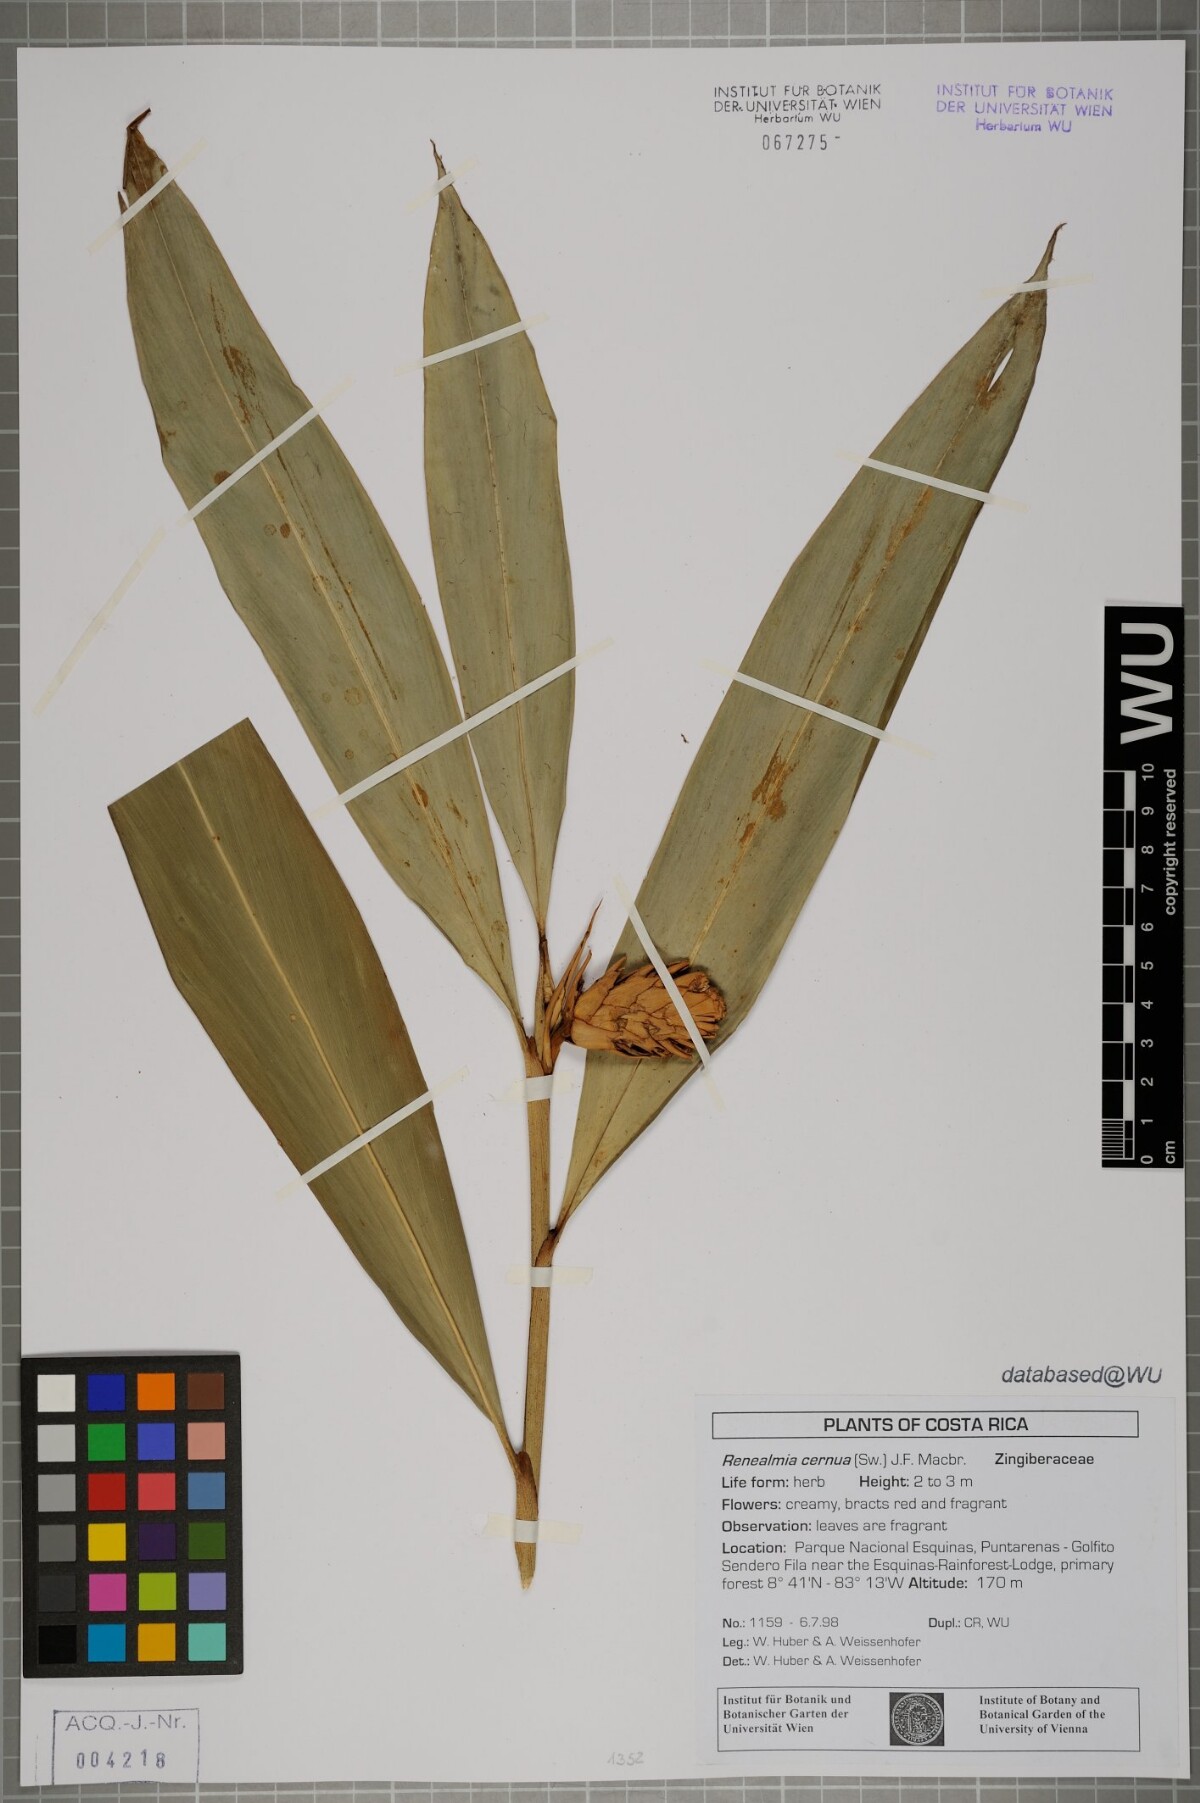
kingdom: Plantae
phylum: Tracheophyta
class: Liliopsida
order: Zingiberales
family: Zingiberaceae
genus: Renealmia
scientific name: Renealmia cernua
